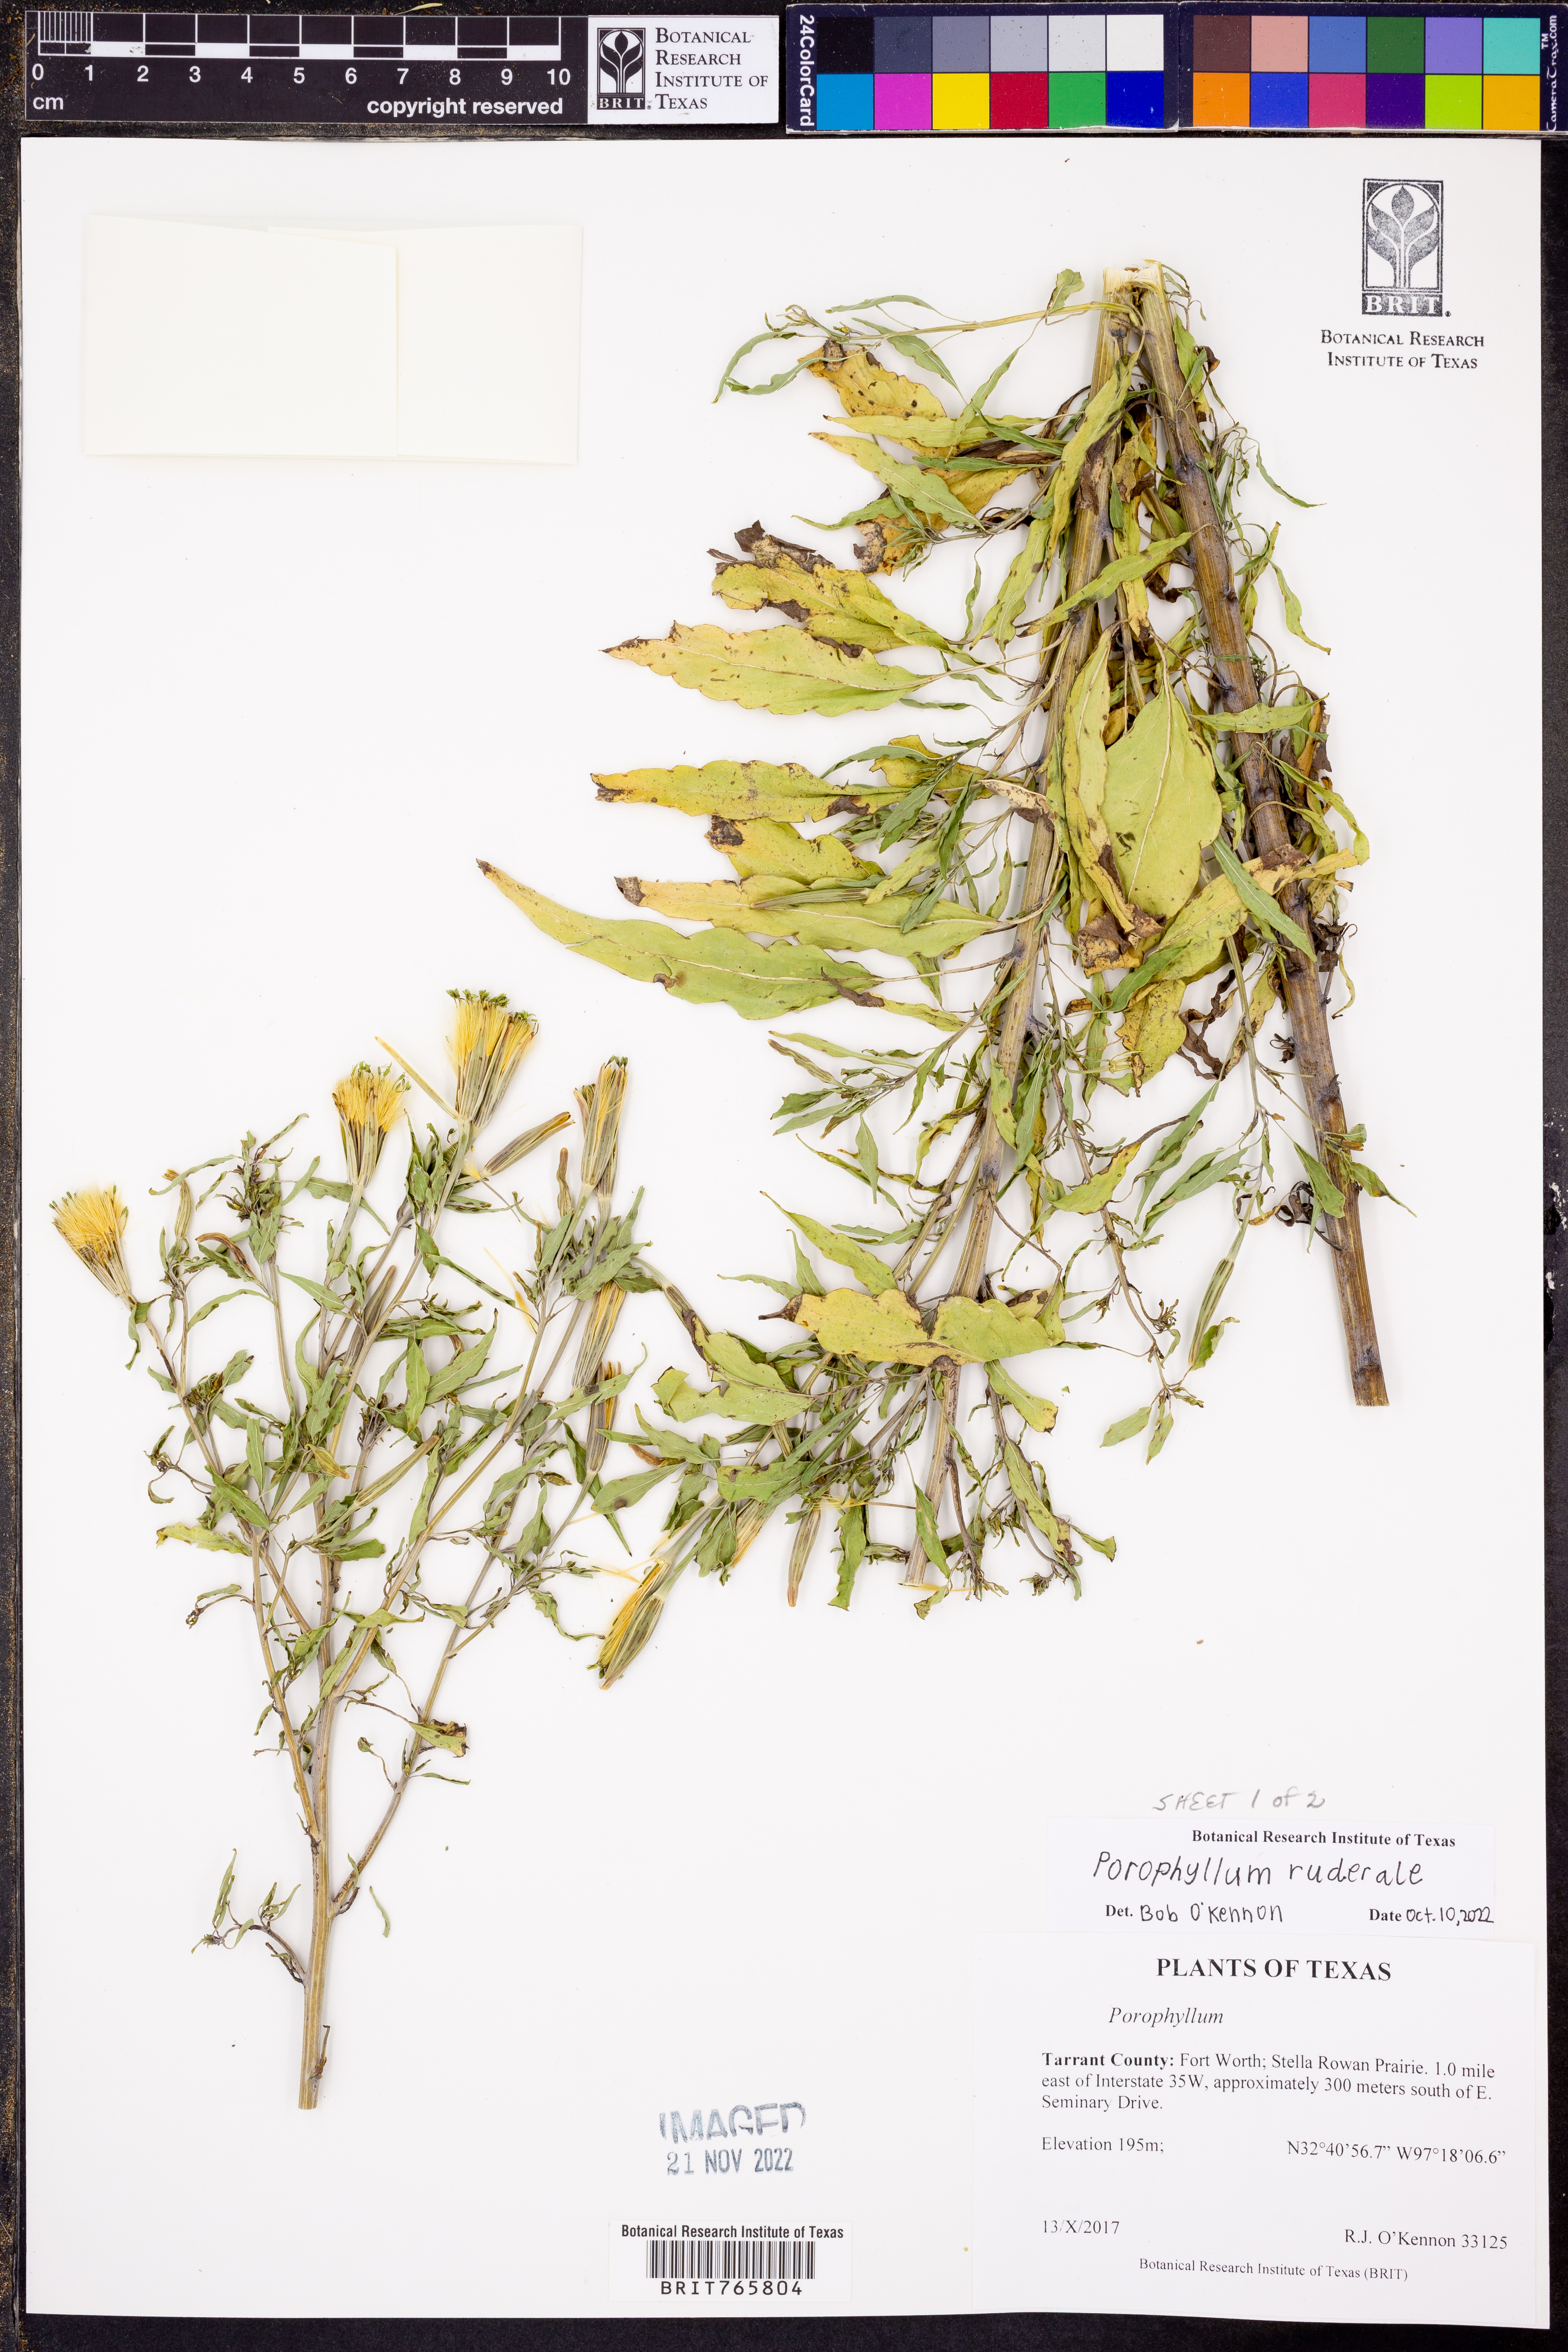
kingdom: Plantae
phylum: Tracheophyta
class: Magnoliopsida
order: Asterales
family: Asteraceae
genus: Porophyllum
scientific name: Porophyllum ruderale
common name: Yerba porosa
